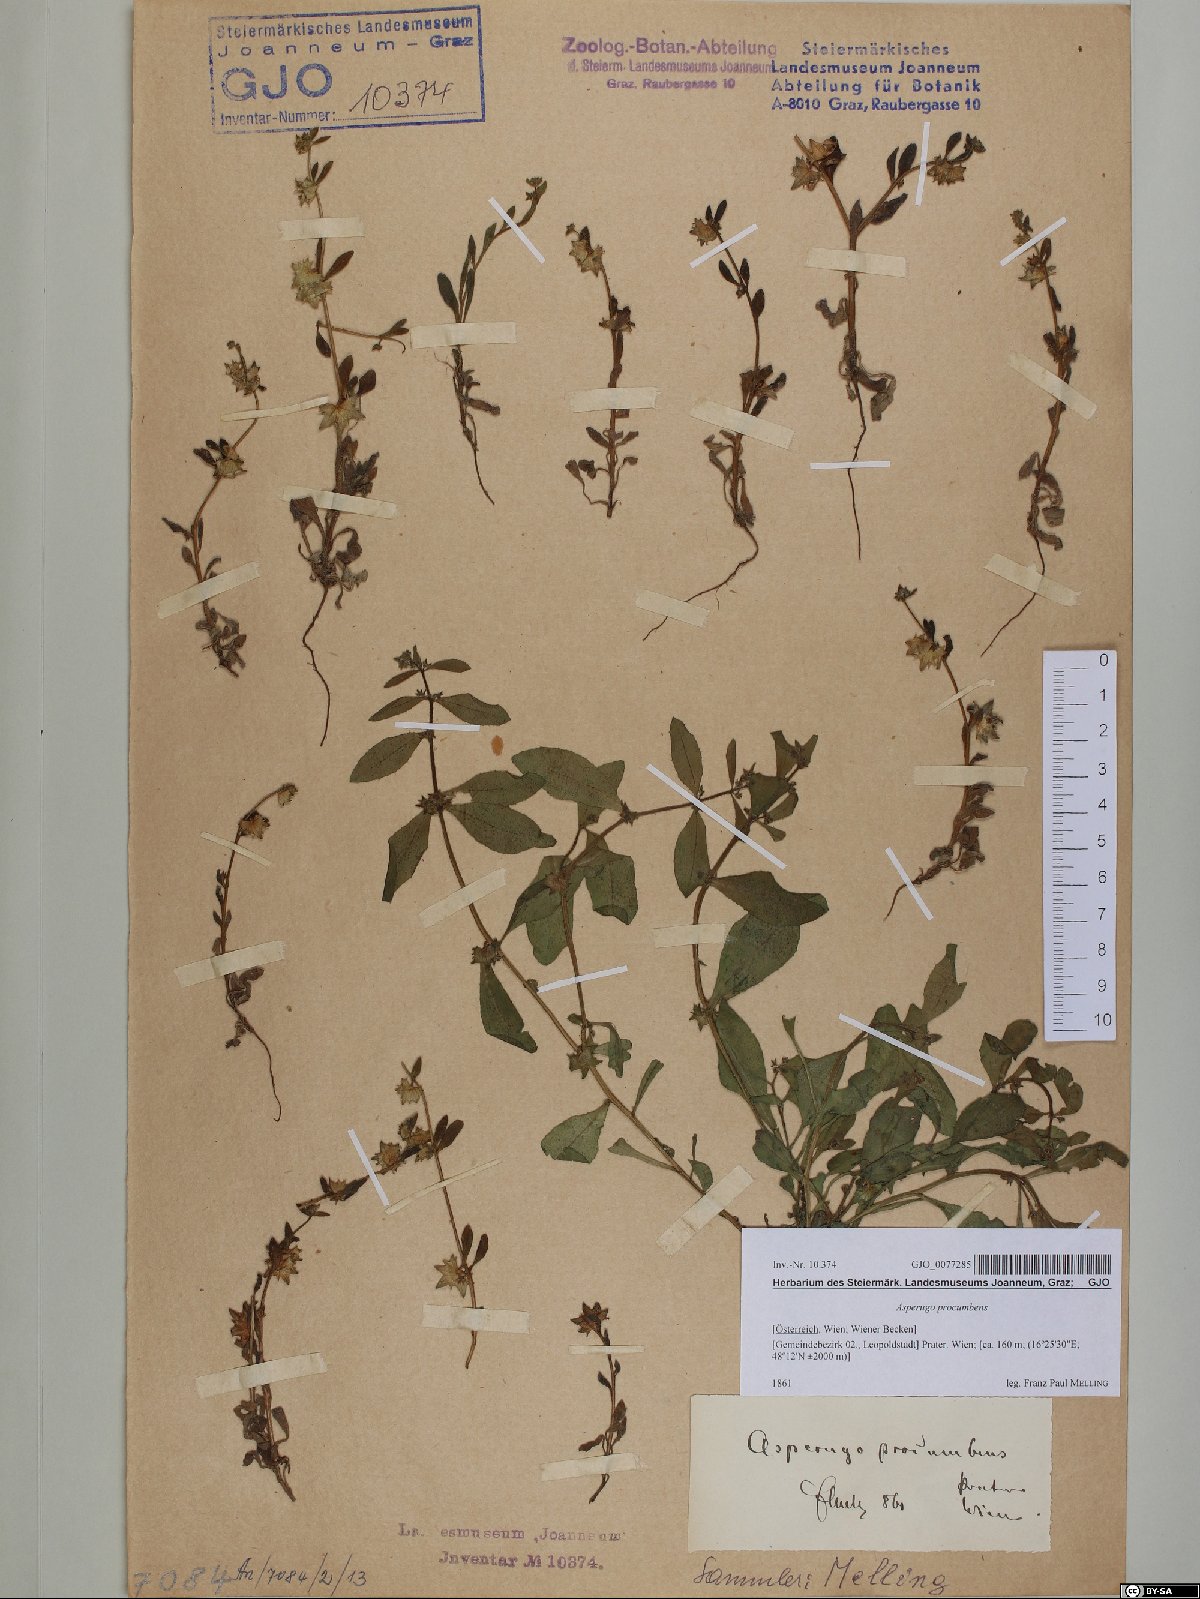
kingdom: Plantae
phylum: Tracheophyta
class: Magnoliopsida
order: Boraginales
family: Boraginaceae
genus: Asperugo
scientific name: Asperugo procumbens
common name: Madwort
